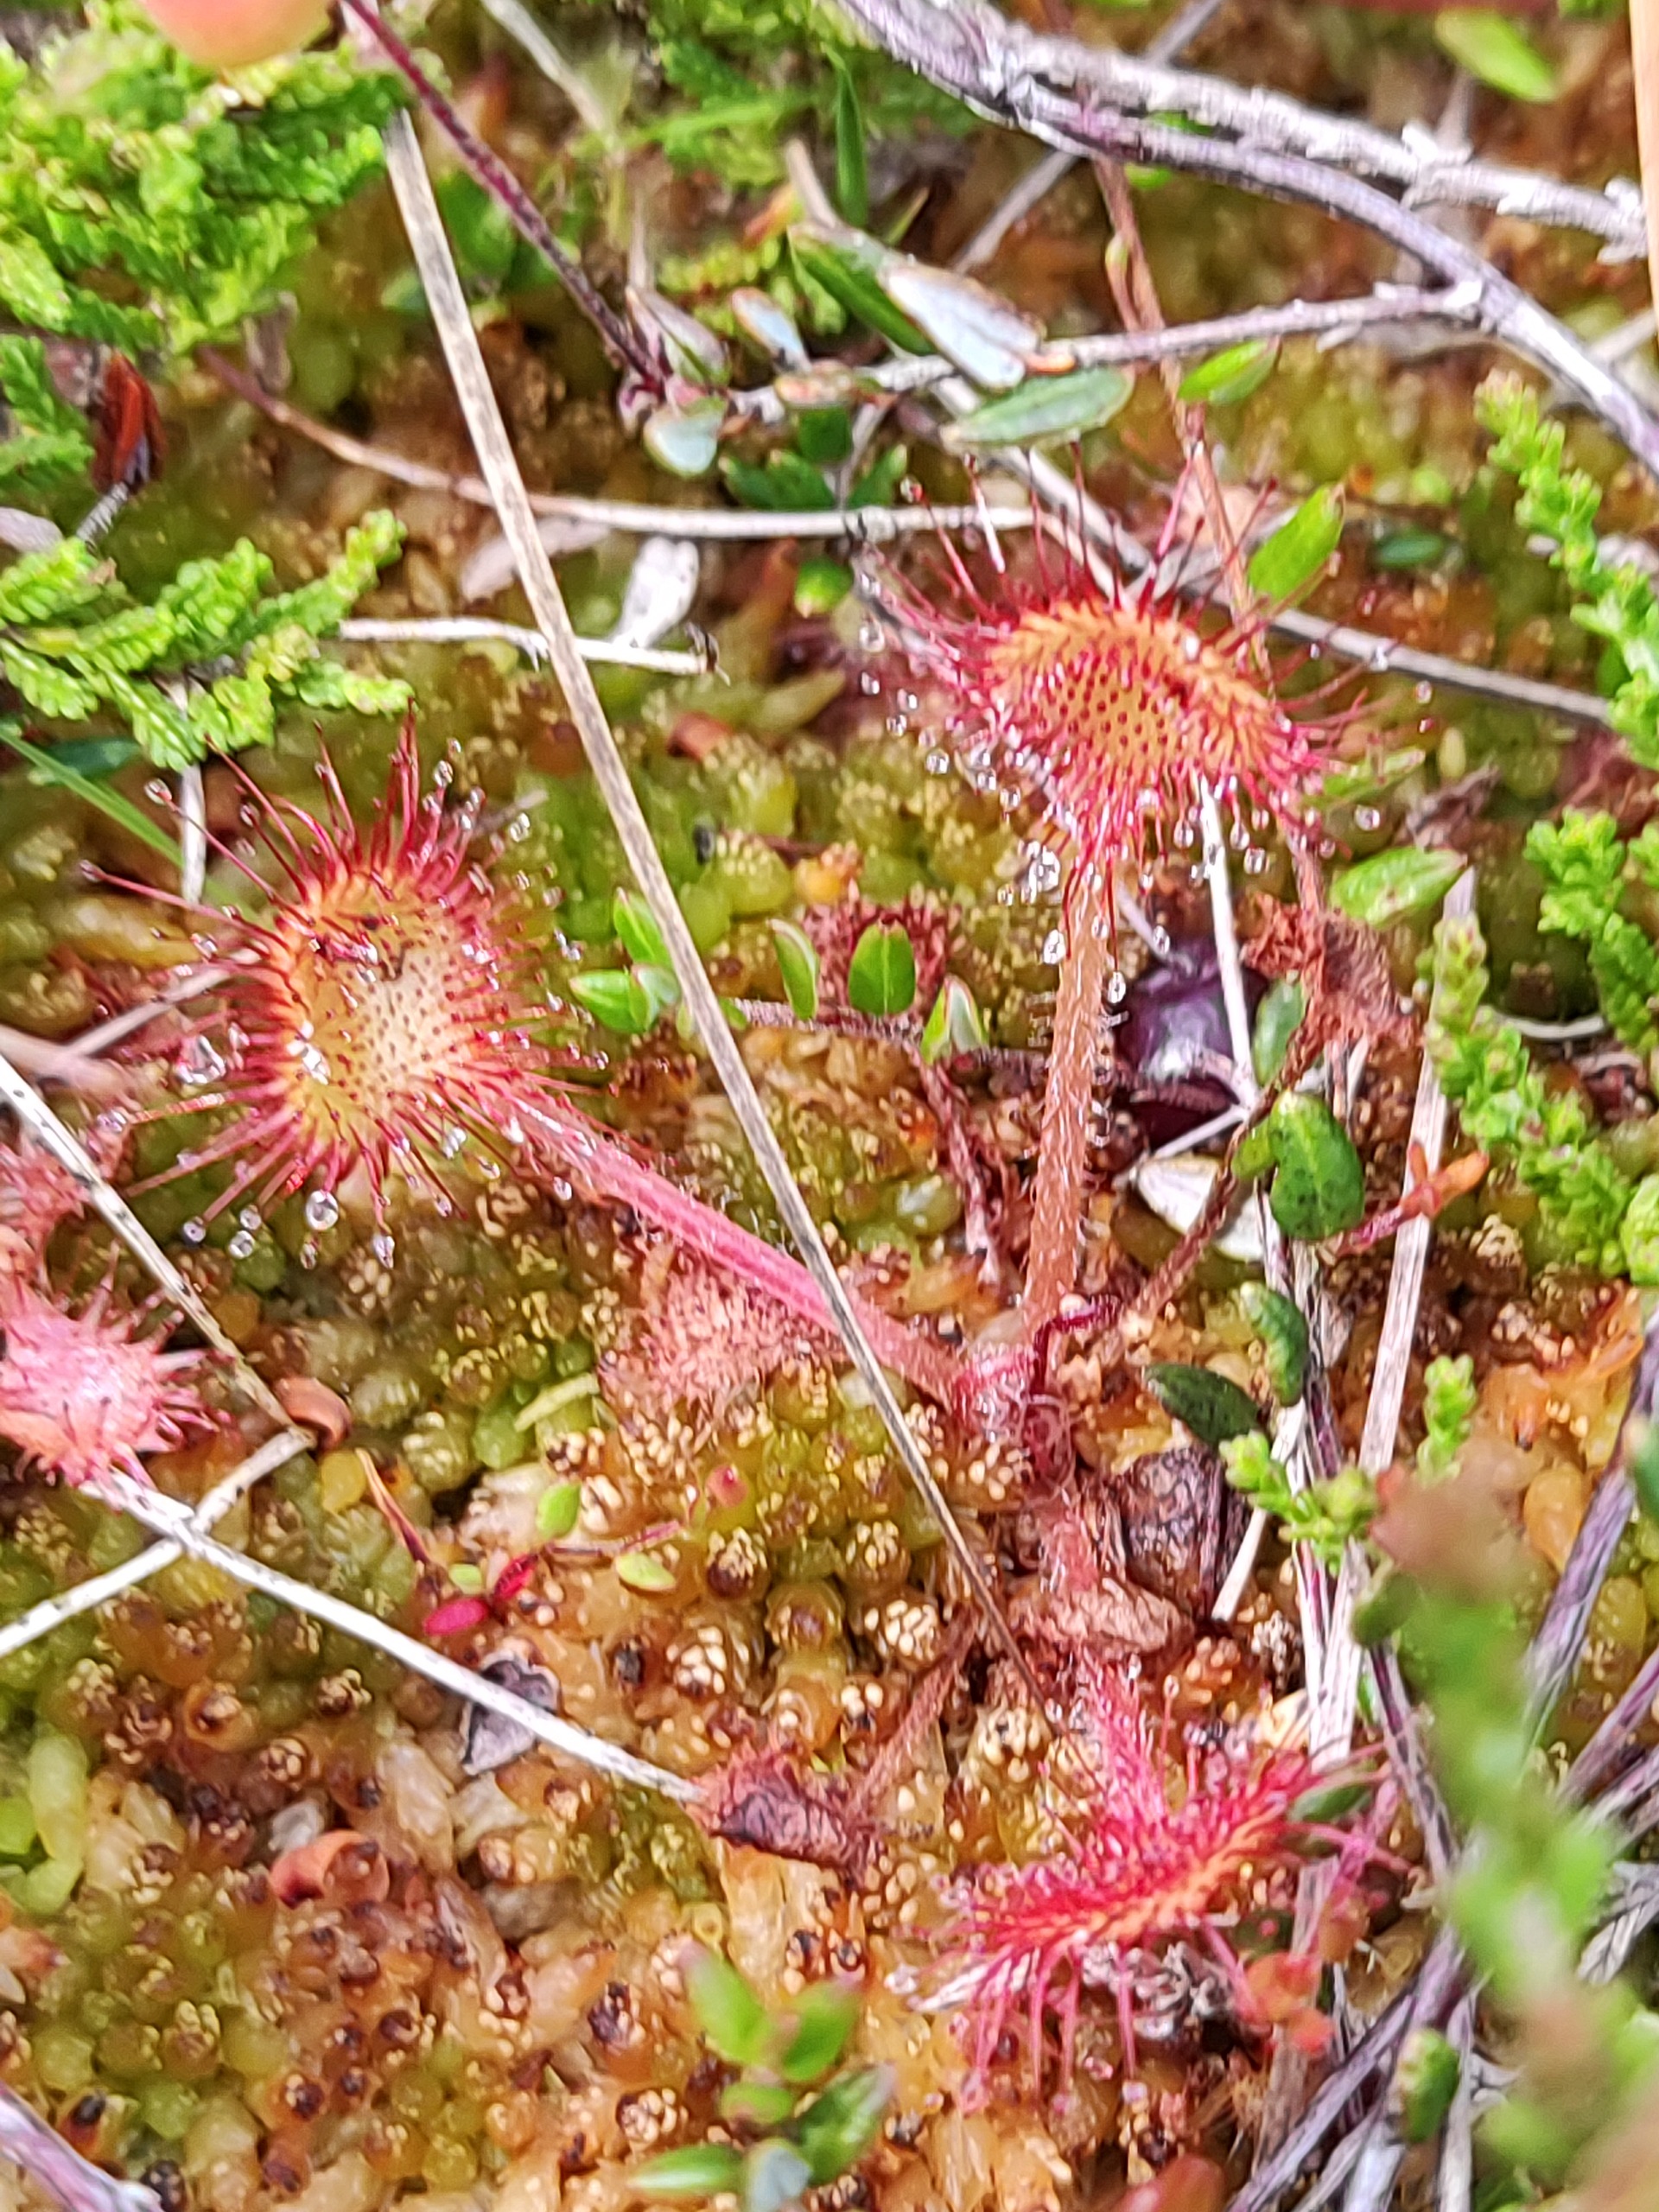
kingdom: Plantae
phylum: Tracheophyta
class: Magnoliopsida
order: Caryophyllales
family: Droseraceae
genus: Drosera
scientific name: Drosera rotundifolia
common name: Rundbladet soldug
